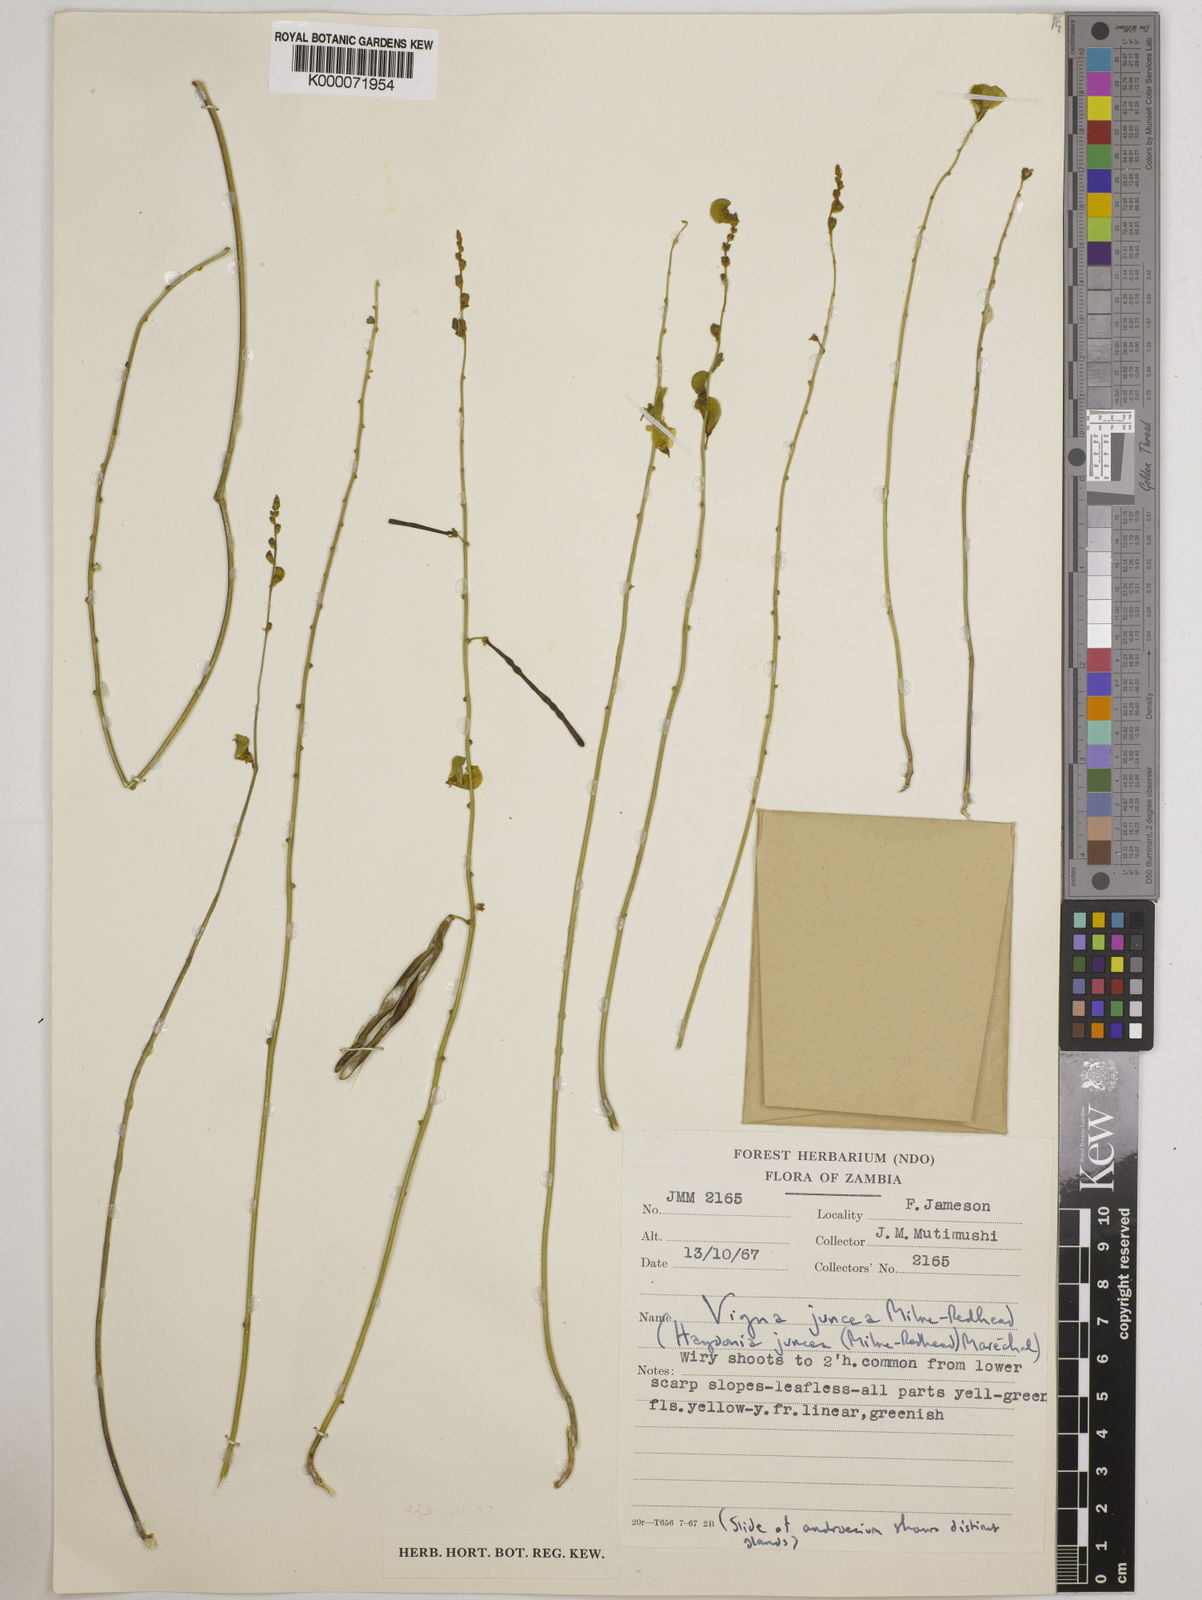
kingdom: Plantae
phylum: Tracheophyta
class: Magnoliopsida
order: Fabales
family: Fabaceae
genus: Vigna
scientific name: Vigna juncea
